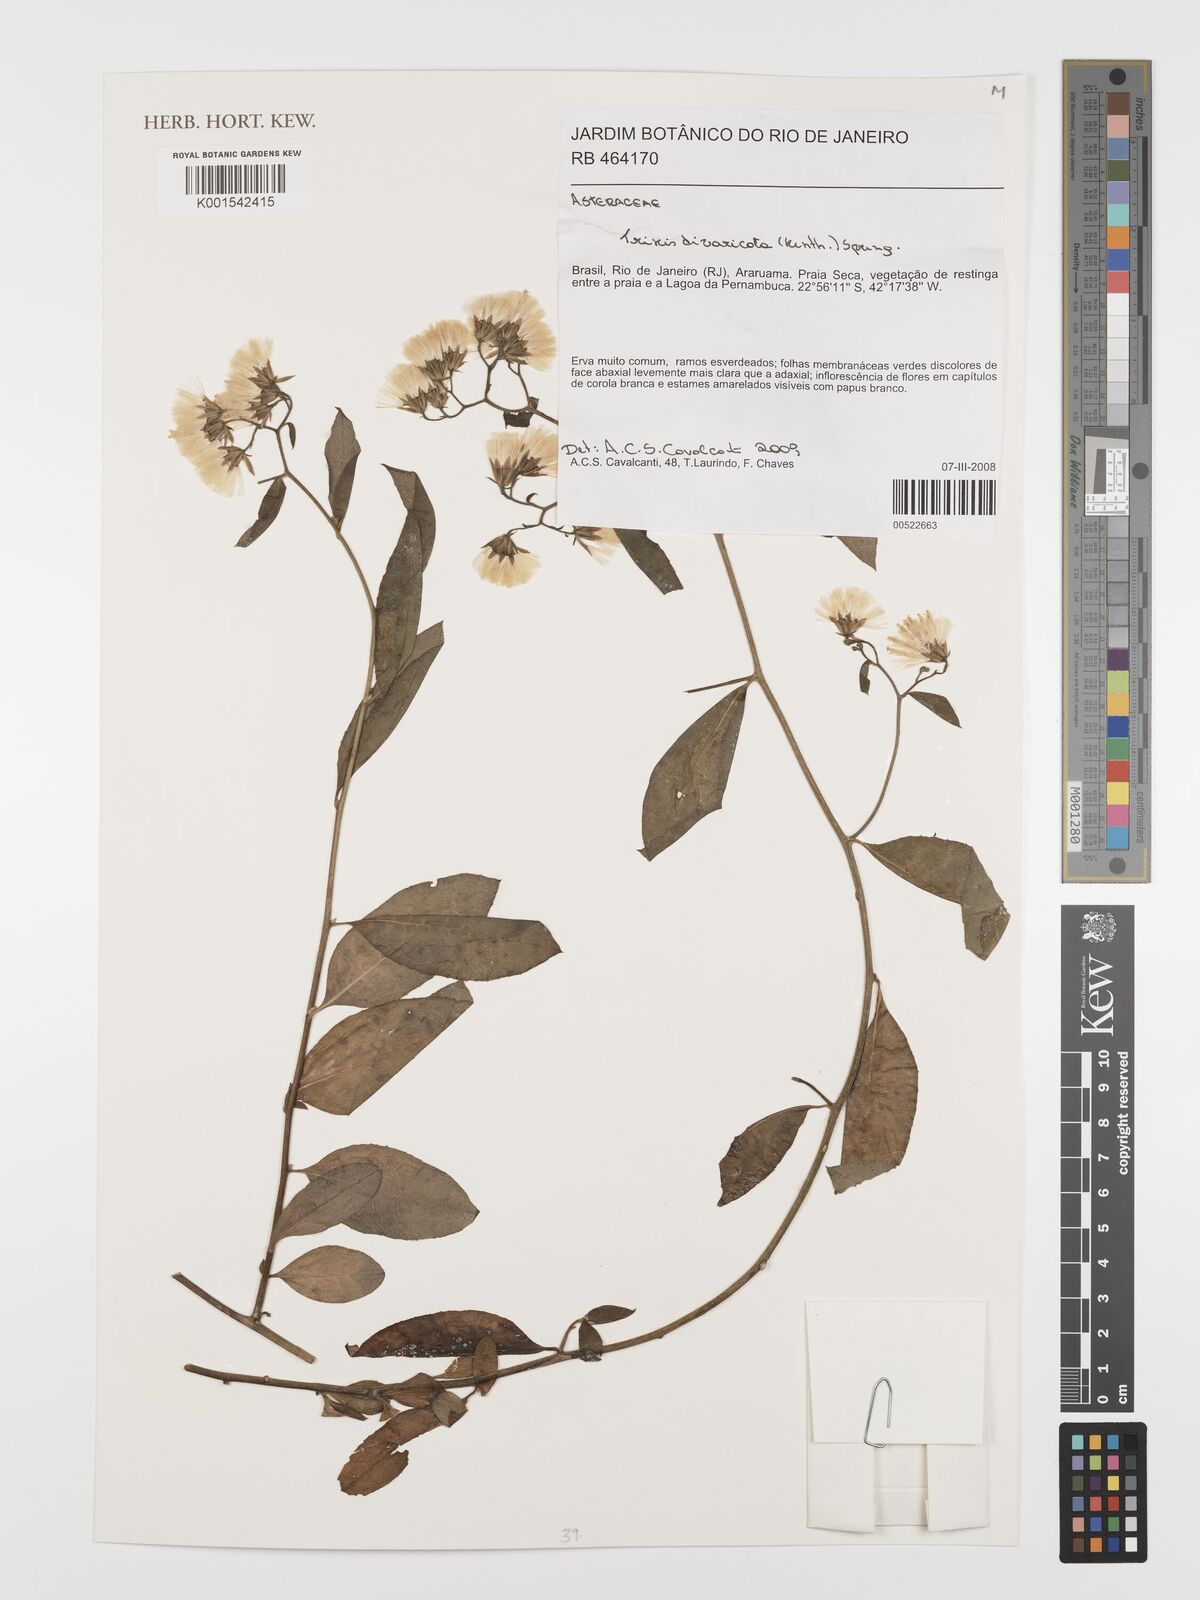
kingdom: Plantae
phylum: Tracheophyta
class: Magnoliopsida
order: Asterales
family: Asteraceae
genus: Trixis
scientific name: Trixis divaricata
